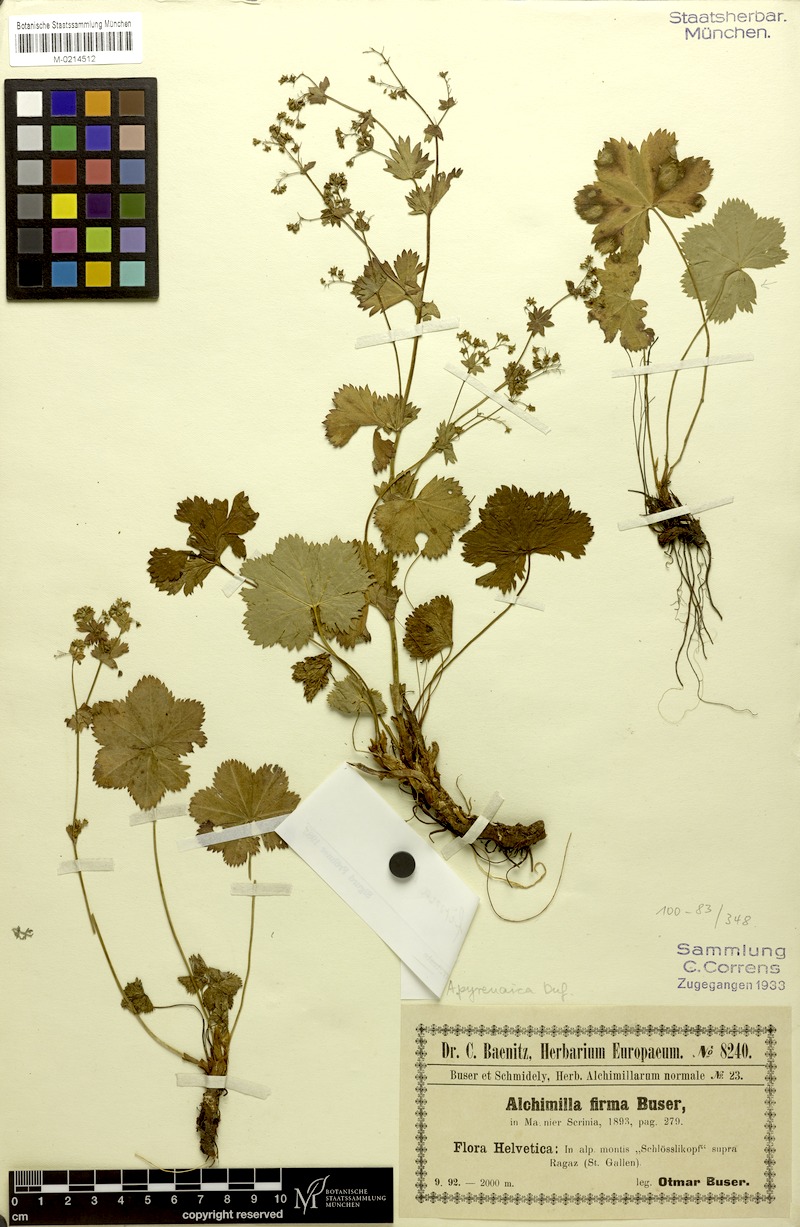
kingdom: Plantae
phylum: Tracheophyta
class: Magnoliopsida
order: Rosales
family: Rosaceae
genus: Alchemilla
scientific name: Alchemilla firma
